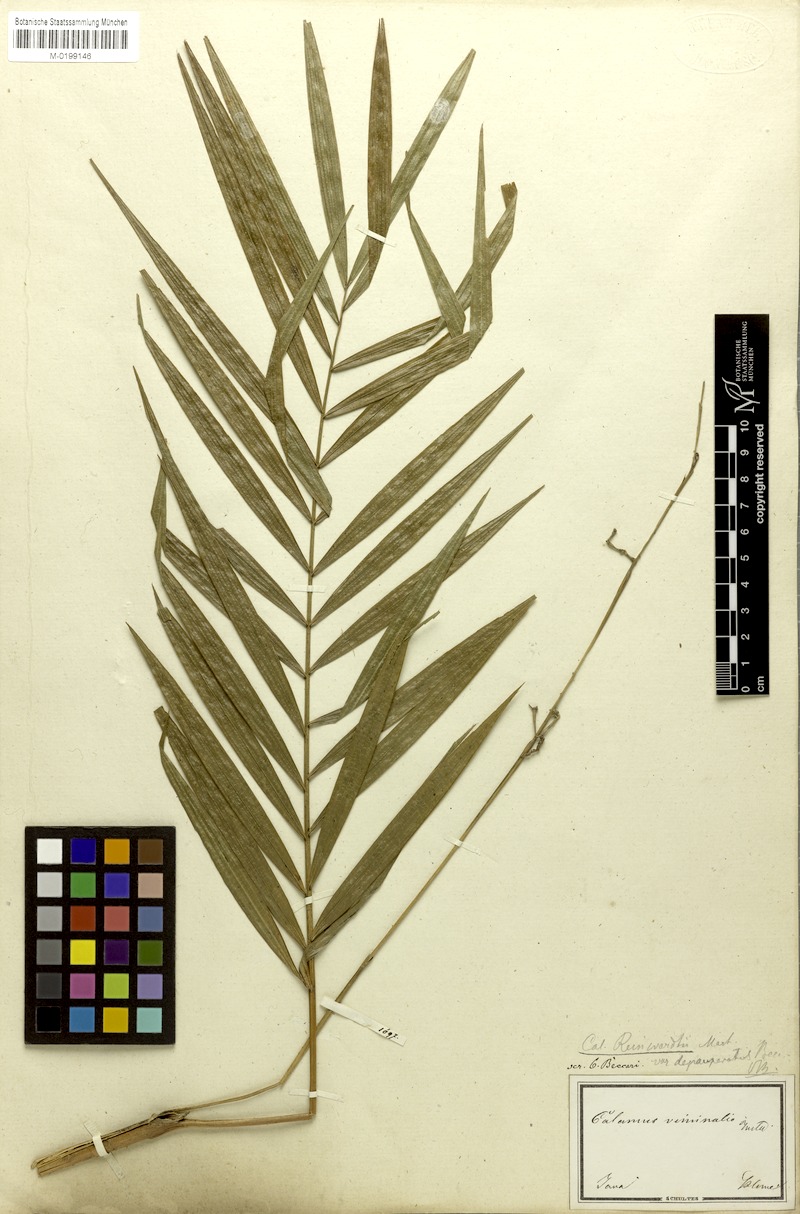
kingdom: Plantae
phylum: Tracheophyta
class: Liliopsida
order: Arecales
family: Arecaceae
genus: Calamus
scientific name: Calamus heteroideus
